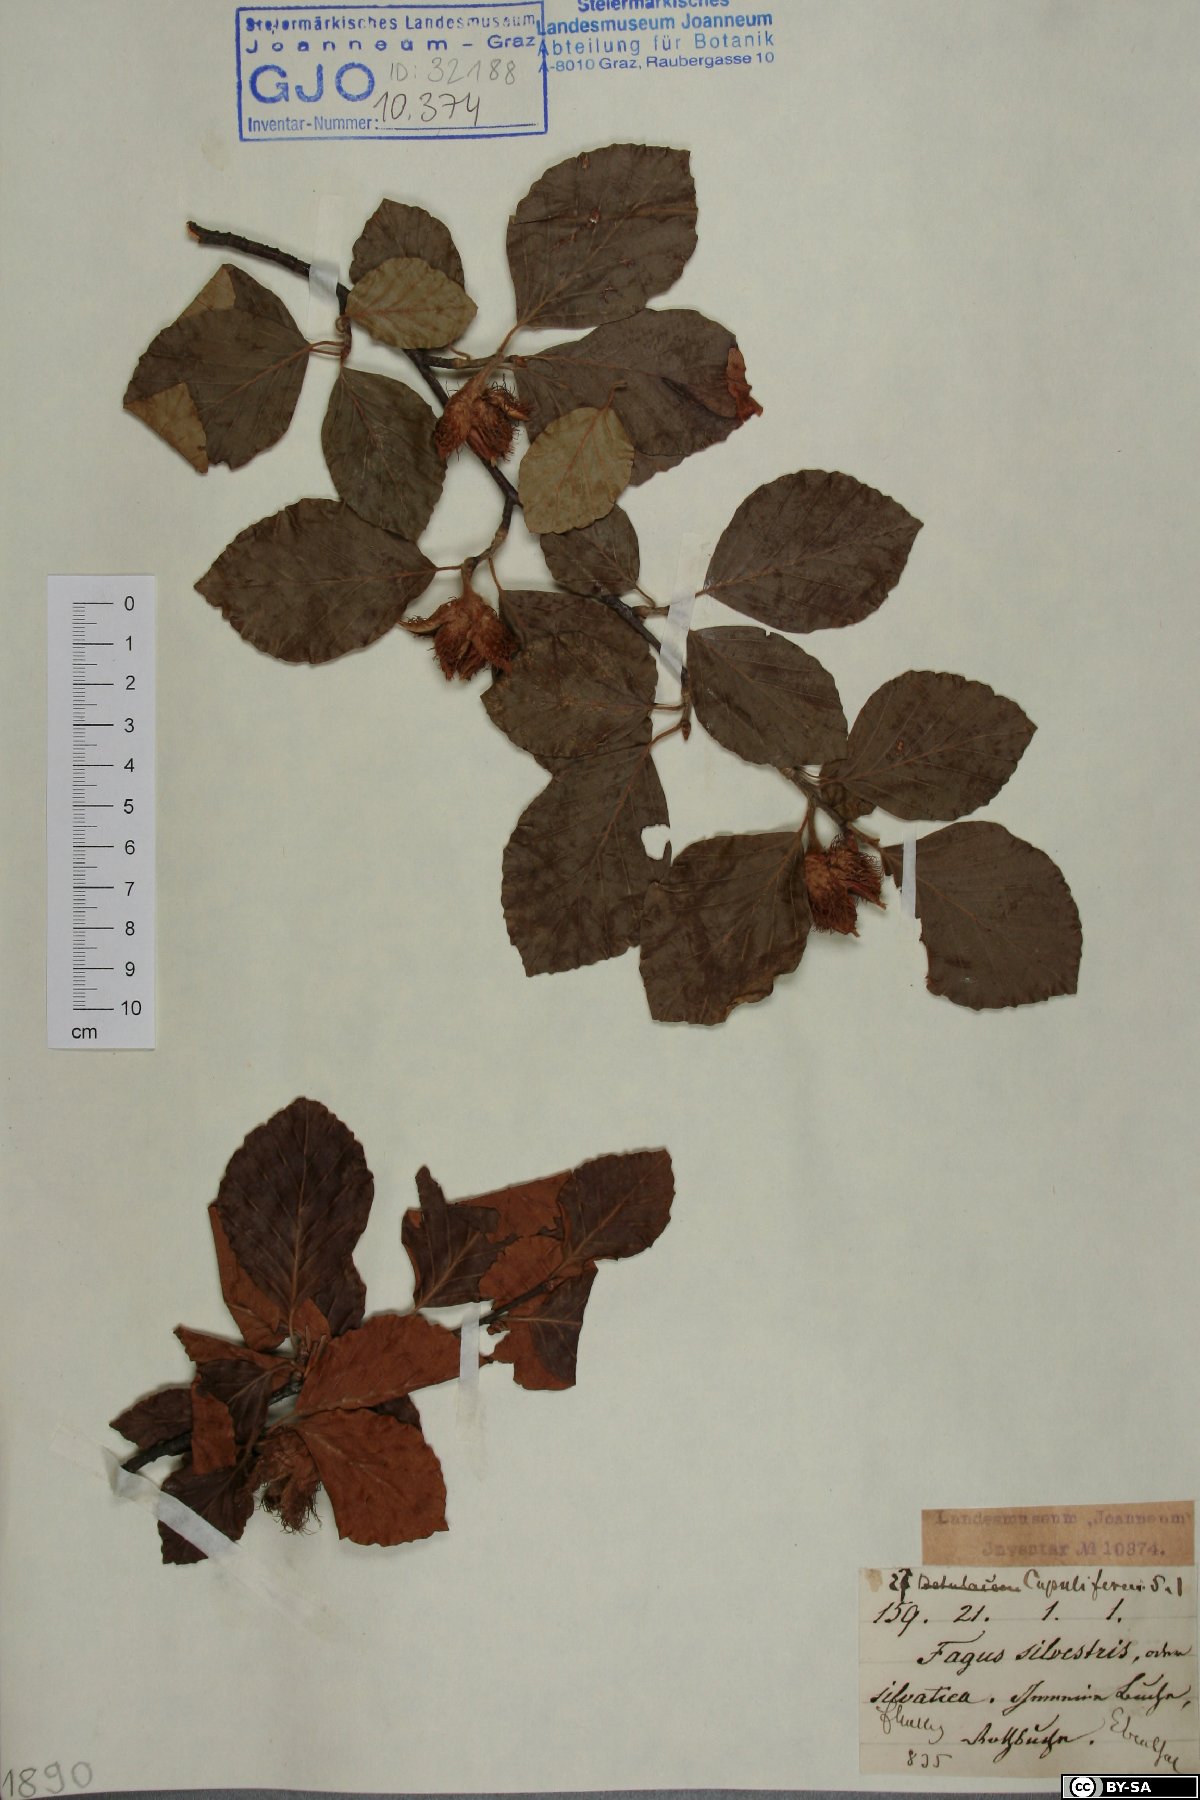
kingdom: Plantae
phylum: Tracheophyta
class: Magnoliopsida
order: Fagales
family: Fagaceae
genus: Fagus
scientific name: Fagus sylvatica
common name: Beech
